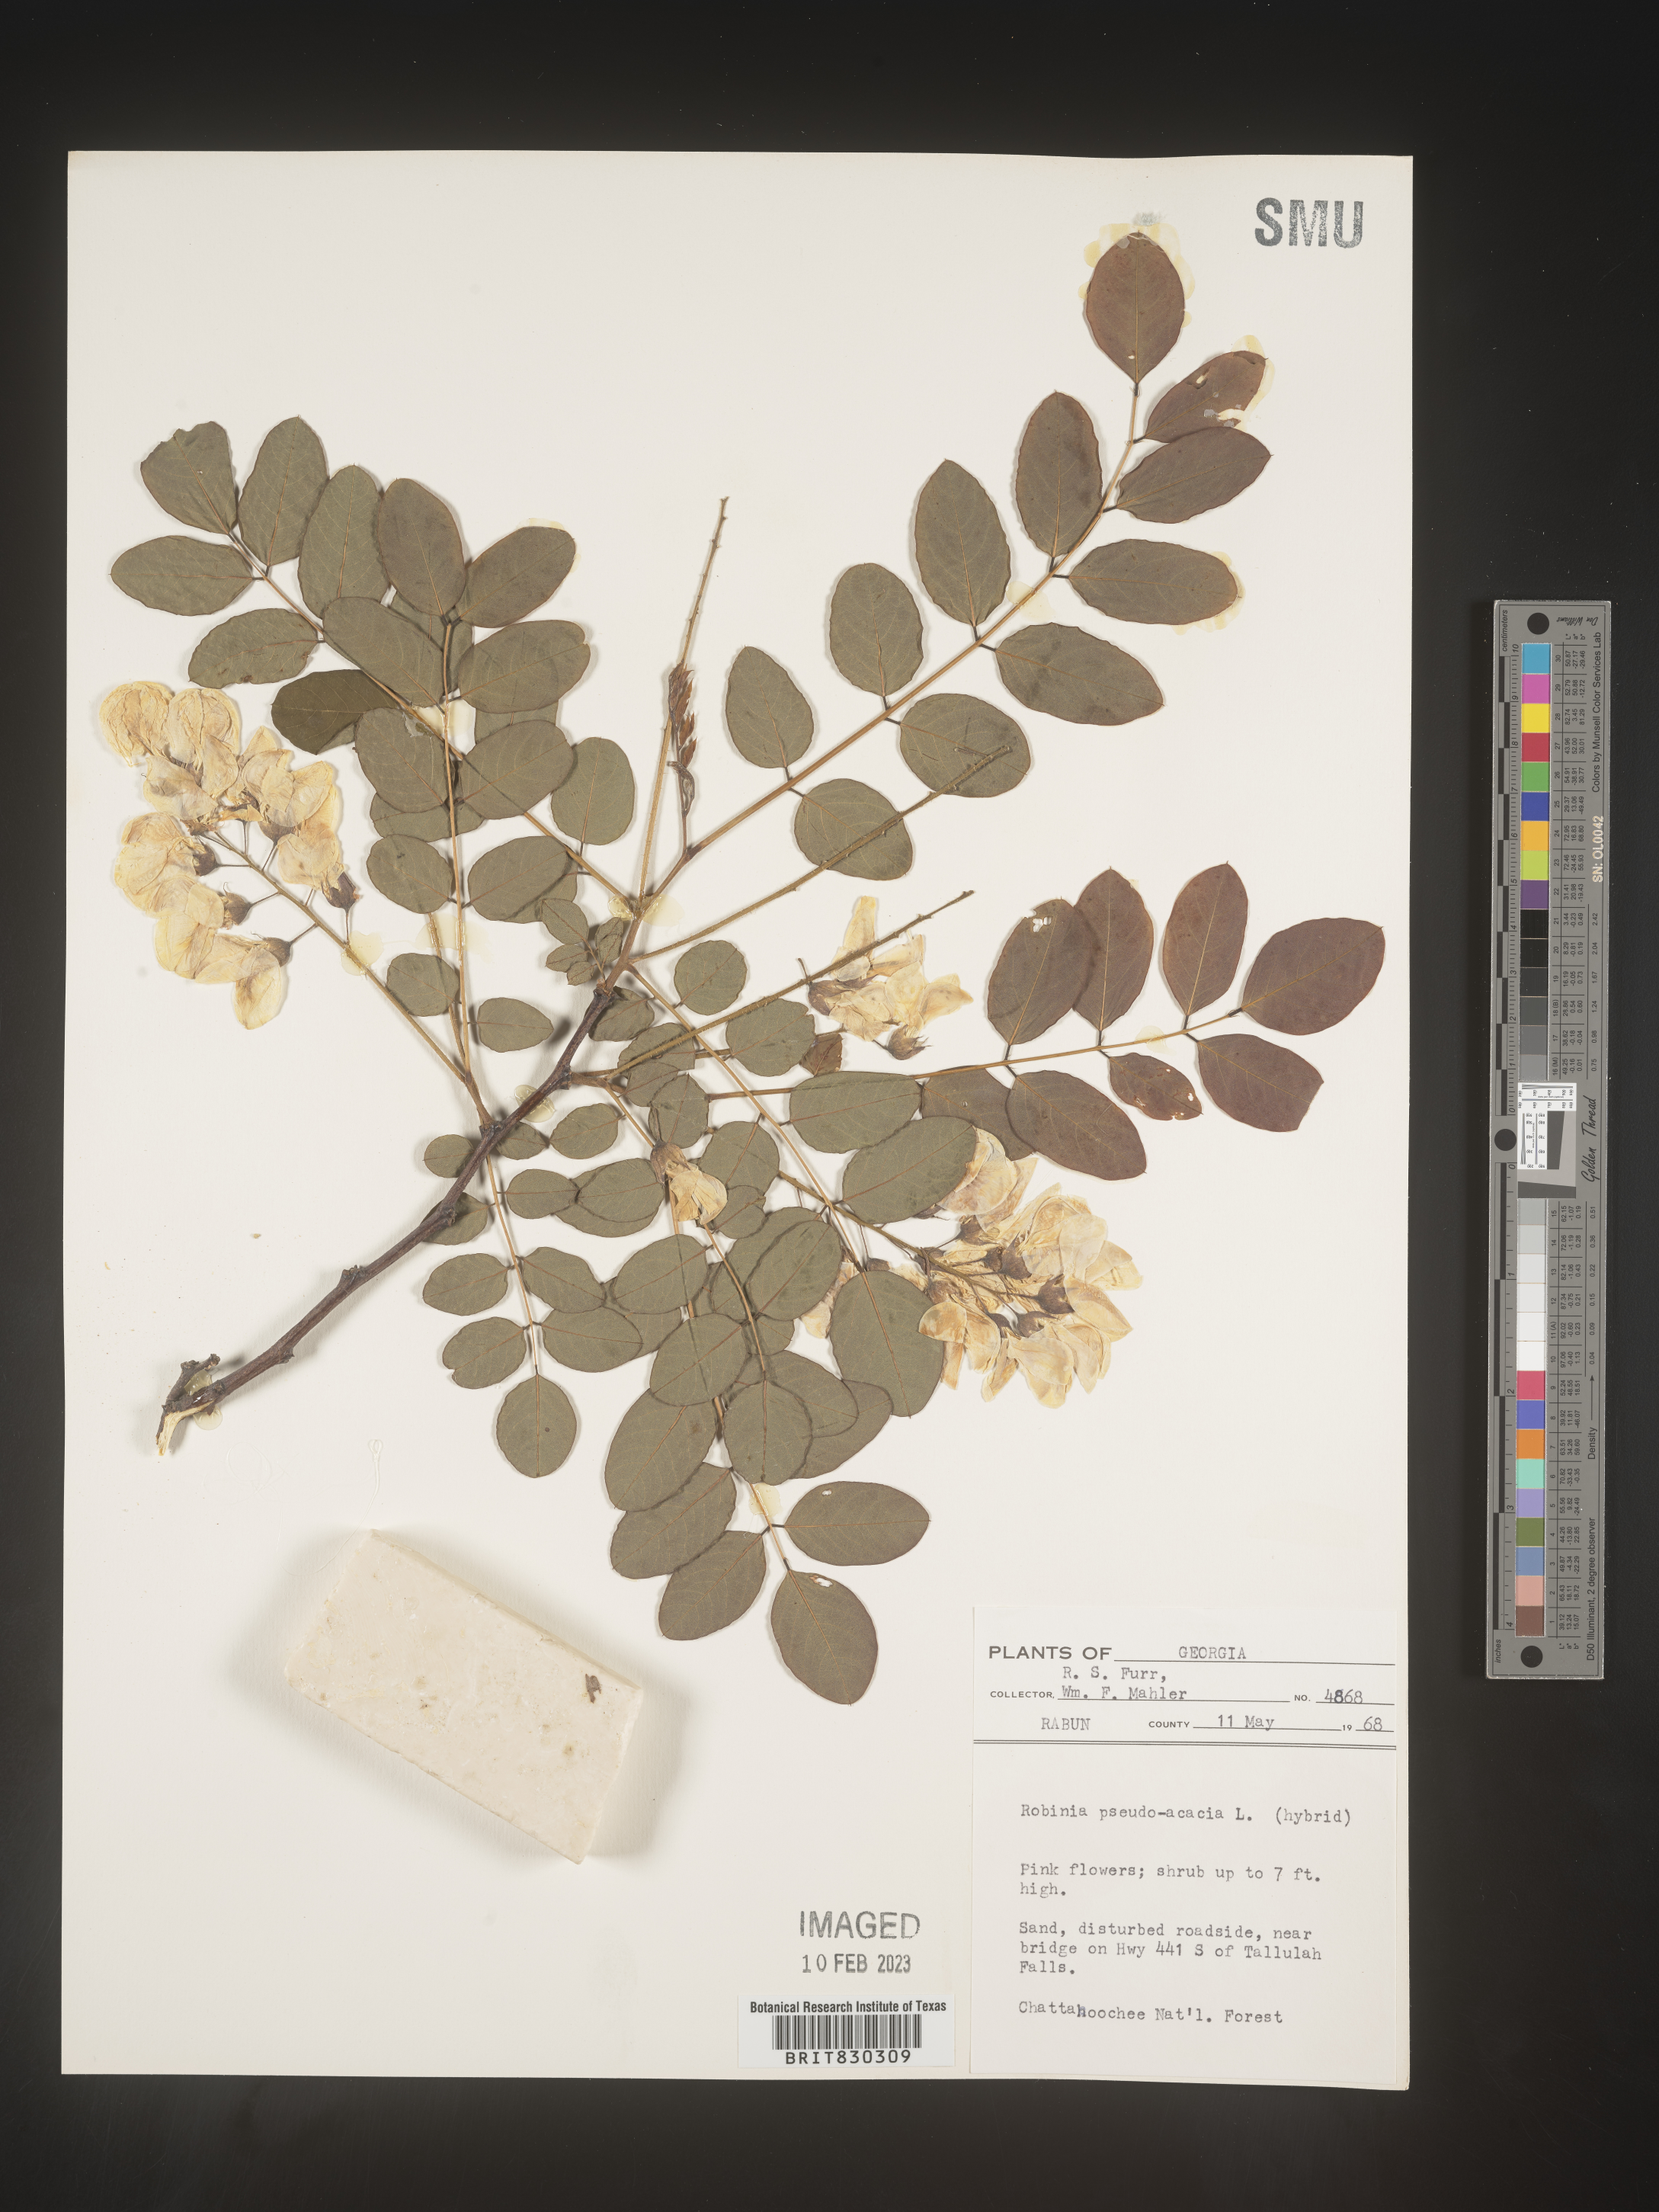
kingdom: Plantae
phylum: Tracheophyta
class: Magnoliopsida
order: Fabales
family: Fabaceae
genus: Robinia
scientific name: Robinia pseudoacacia
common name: Black locust
